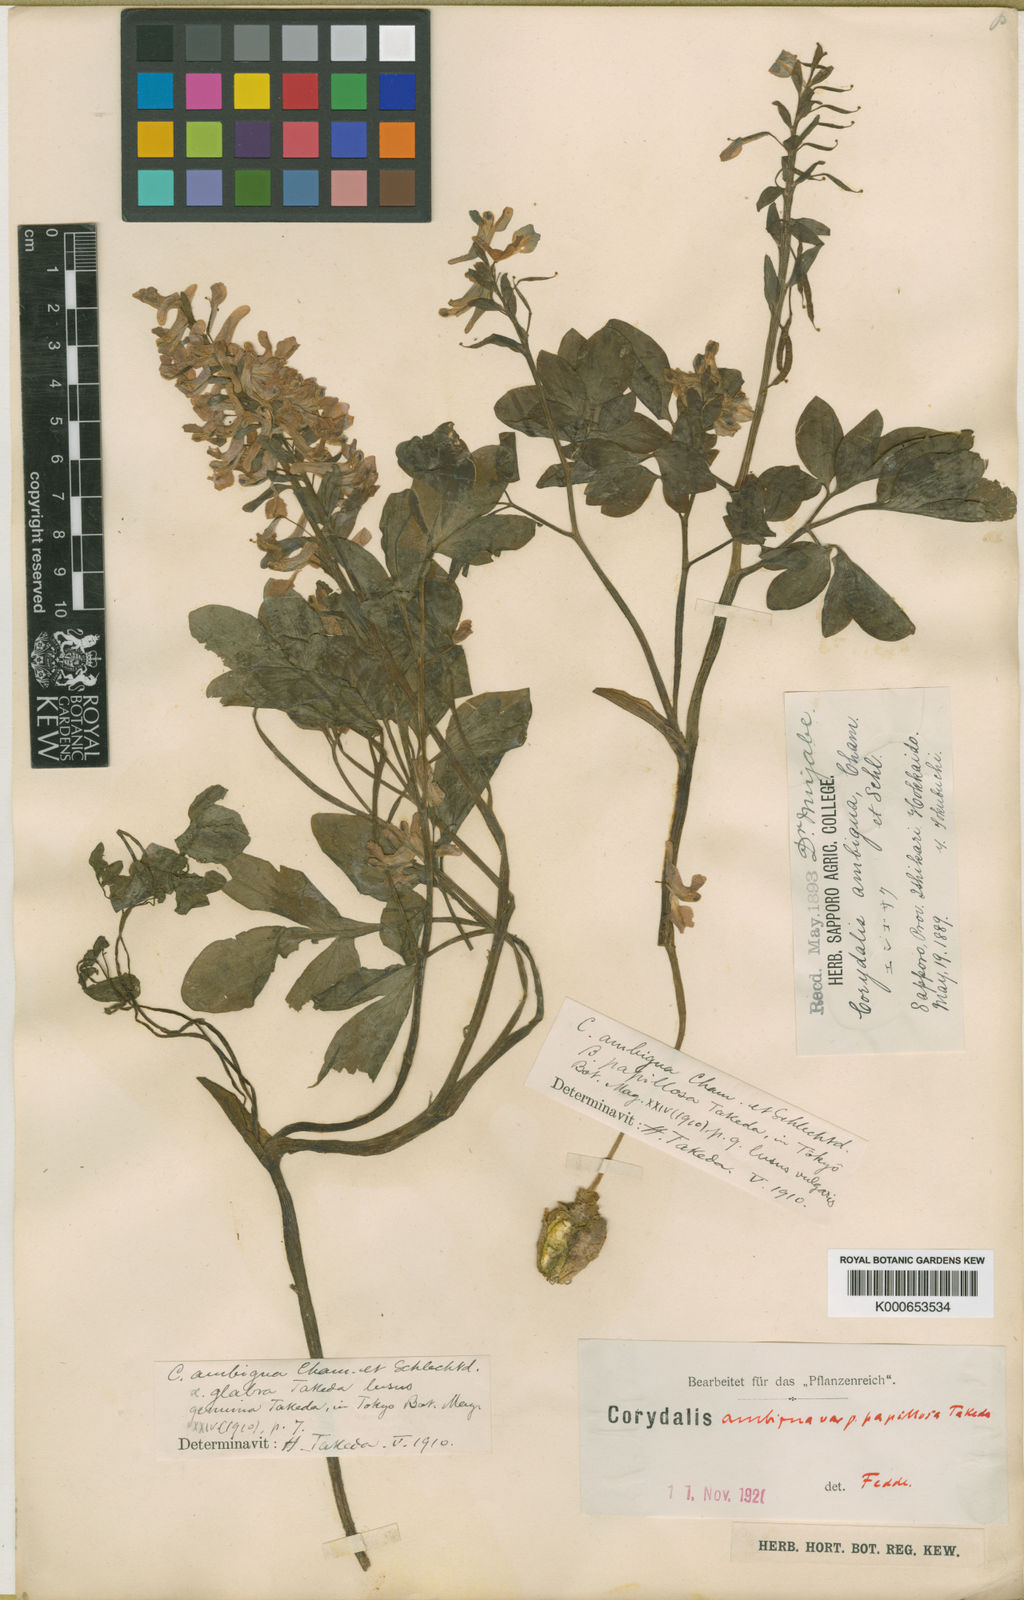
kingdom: Plantae
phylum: Tracheophyta
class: Magnoliopsida
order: Ranunculales
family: Papaveraceae
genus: Corydalis
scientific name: Corydalis ambigua
